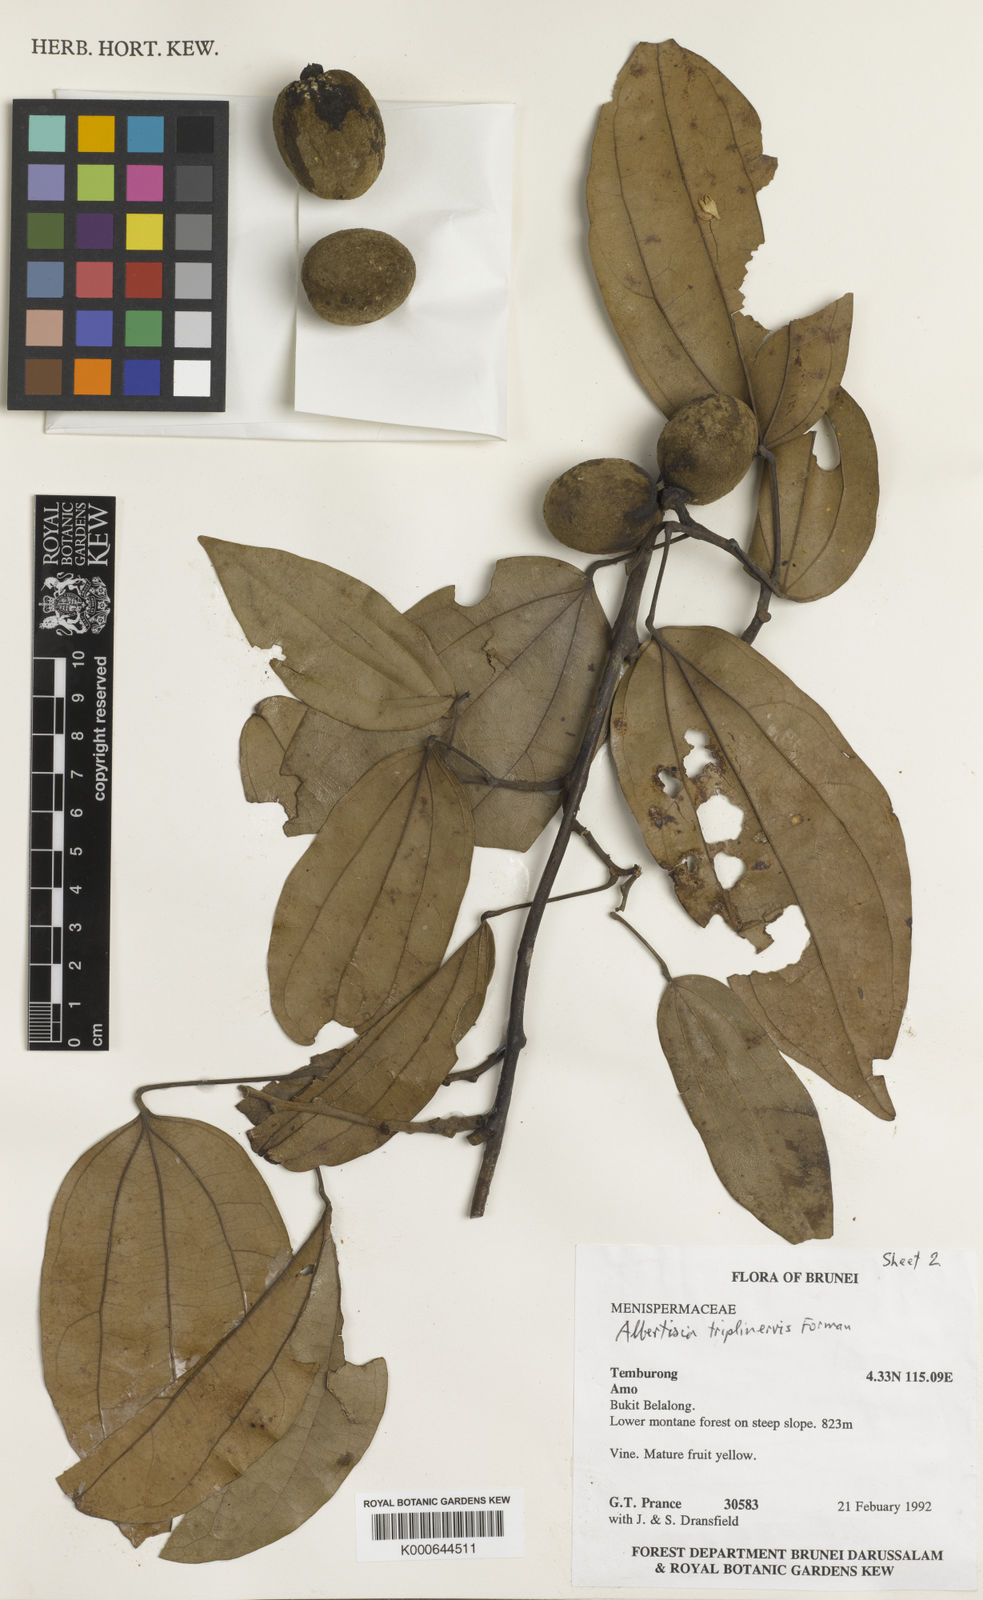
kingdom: Plantae
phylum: Tracheophyta
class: Magnoliopsida
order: Ranunculales
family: Menispermaceae
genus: Albertisia
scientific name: Albertisia triplinervis
